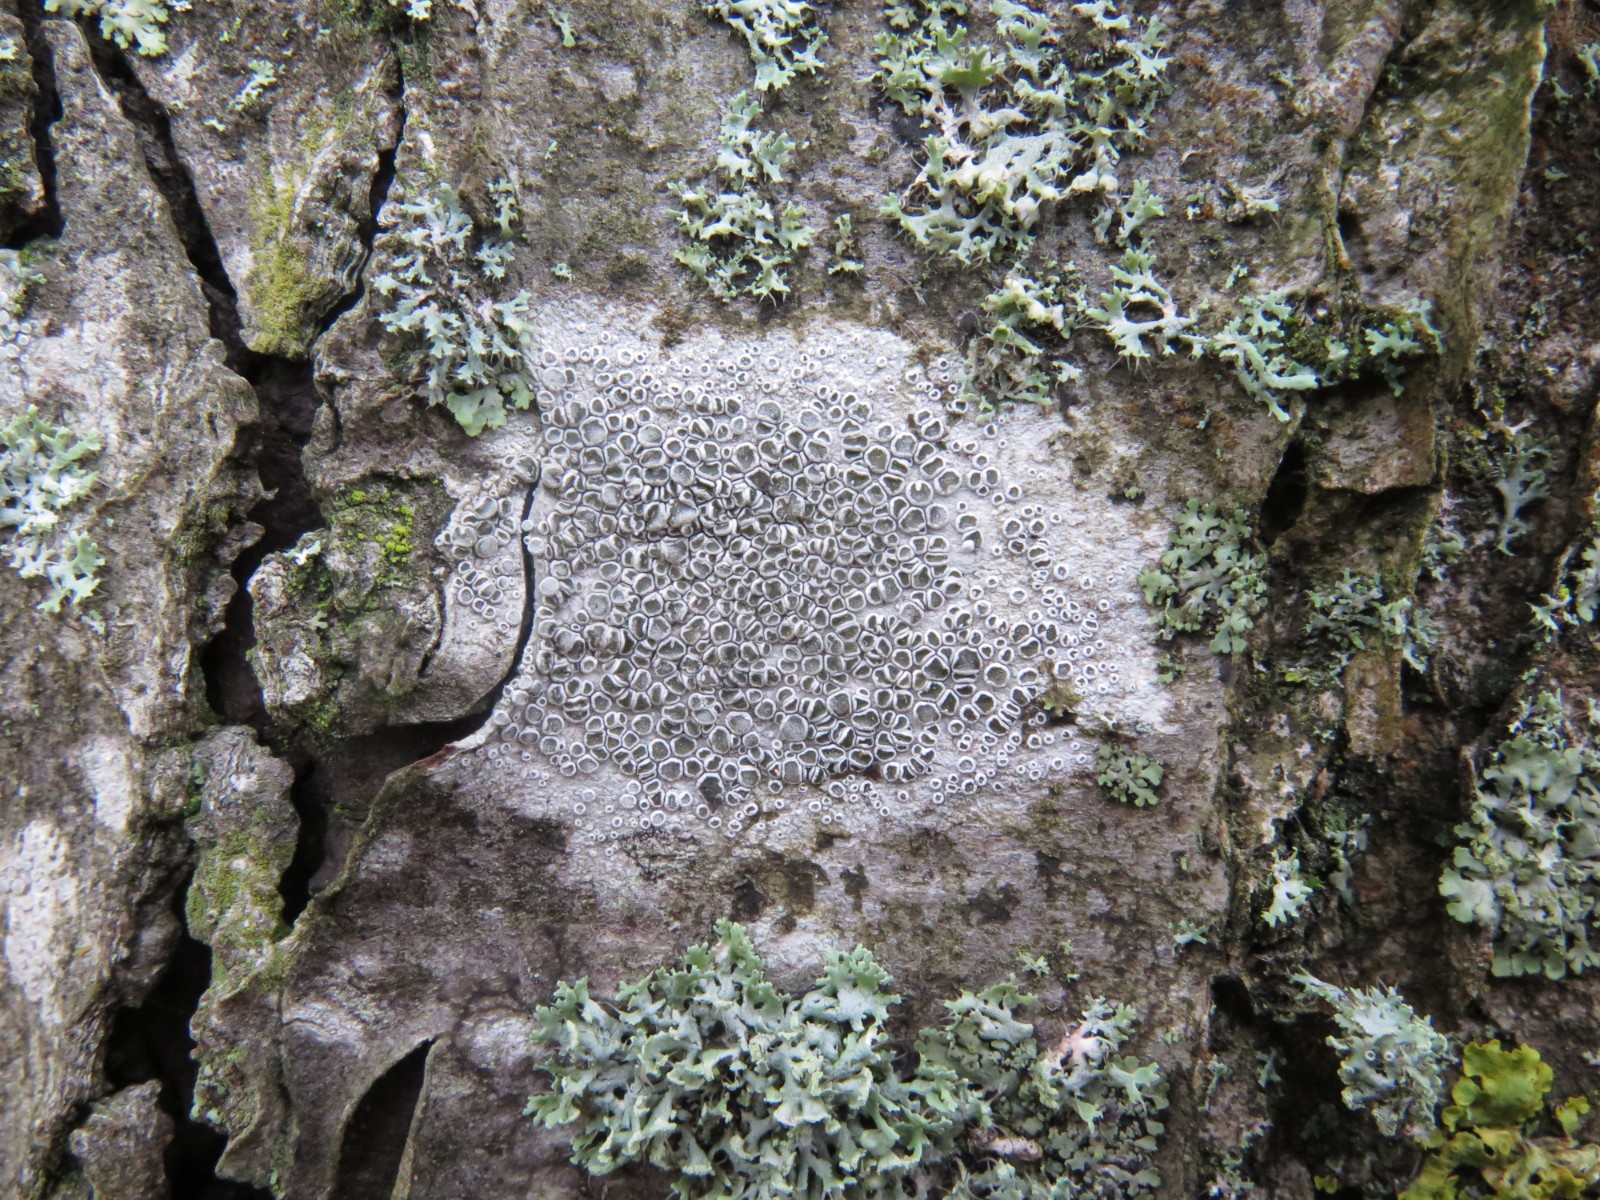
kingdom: Fungi
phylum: Ascomycota
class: Lecanoromycetes
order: Lecanorales
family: Lecanoraceae
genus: Glaucomaria
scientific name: Glaucomaria carpinea
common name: hviddugget kantskivelav
